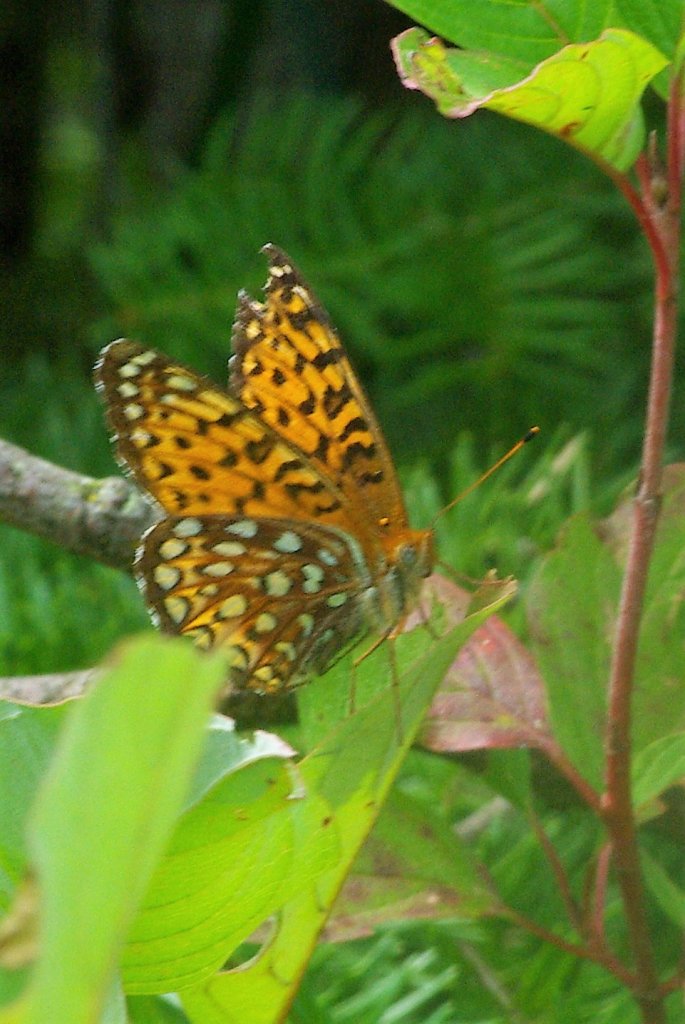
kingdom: Animalia
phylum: Arthropoda
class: Insecta
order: Lepidoptera
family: Nymphalidae
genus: Speyeria
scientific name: Speyeria atlantis
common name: Atlantis Fritillary
